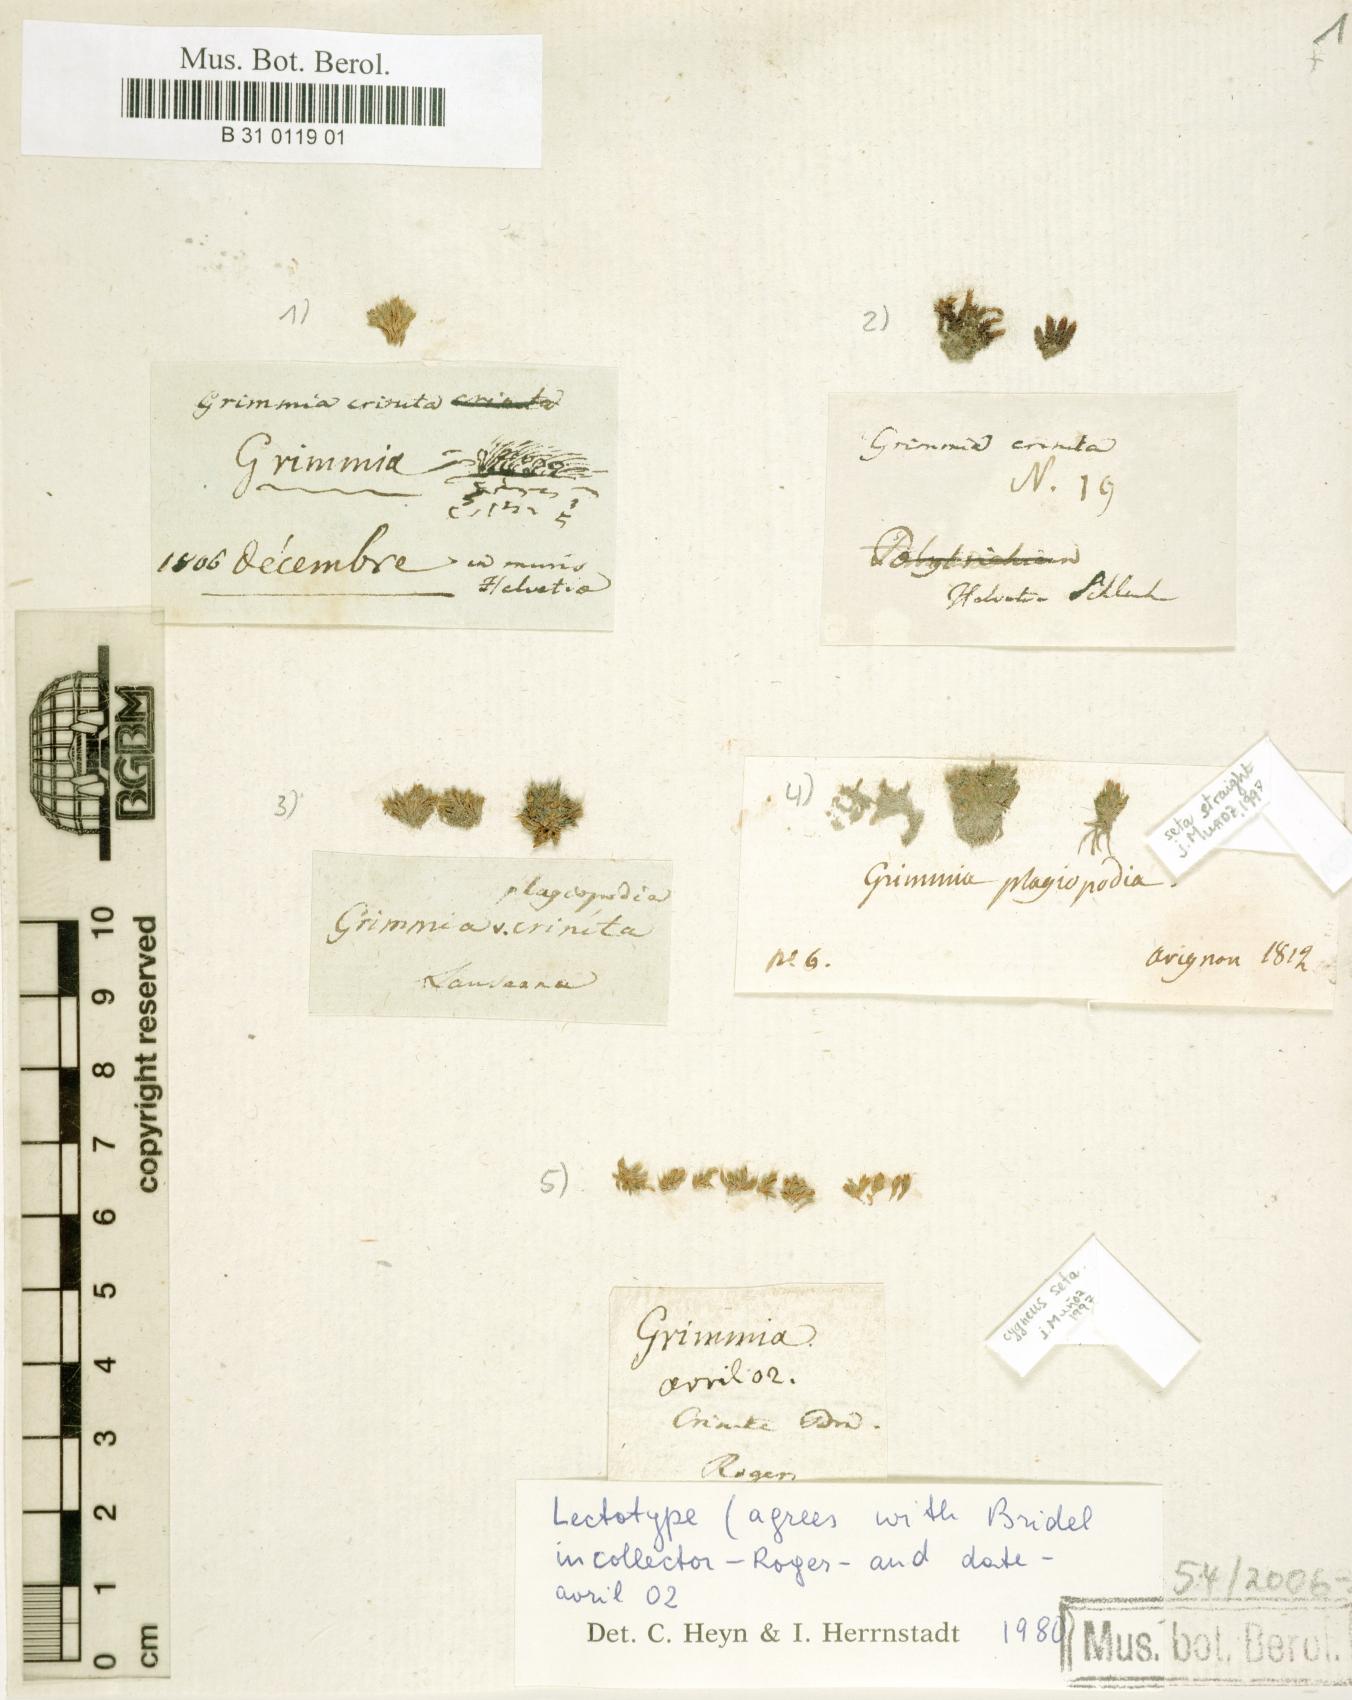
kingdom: Plantae
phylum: Bryophyta
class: Bryopsida
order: Grimmiales
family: Grimmiaceae
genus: Grimmia
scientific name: Grimmia crinita
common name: Hedgehog grimmia
